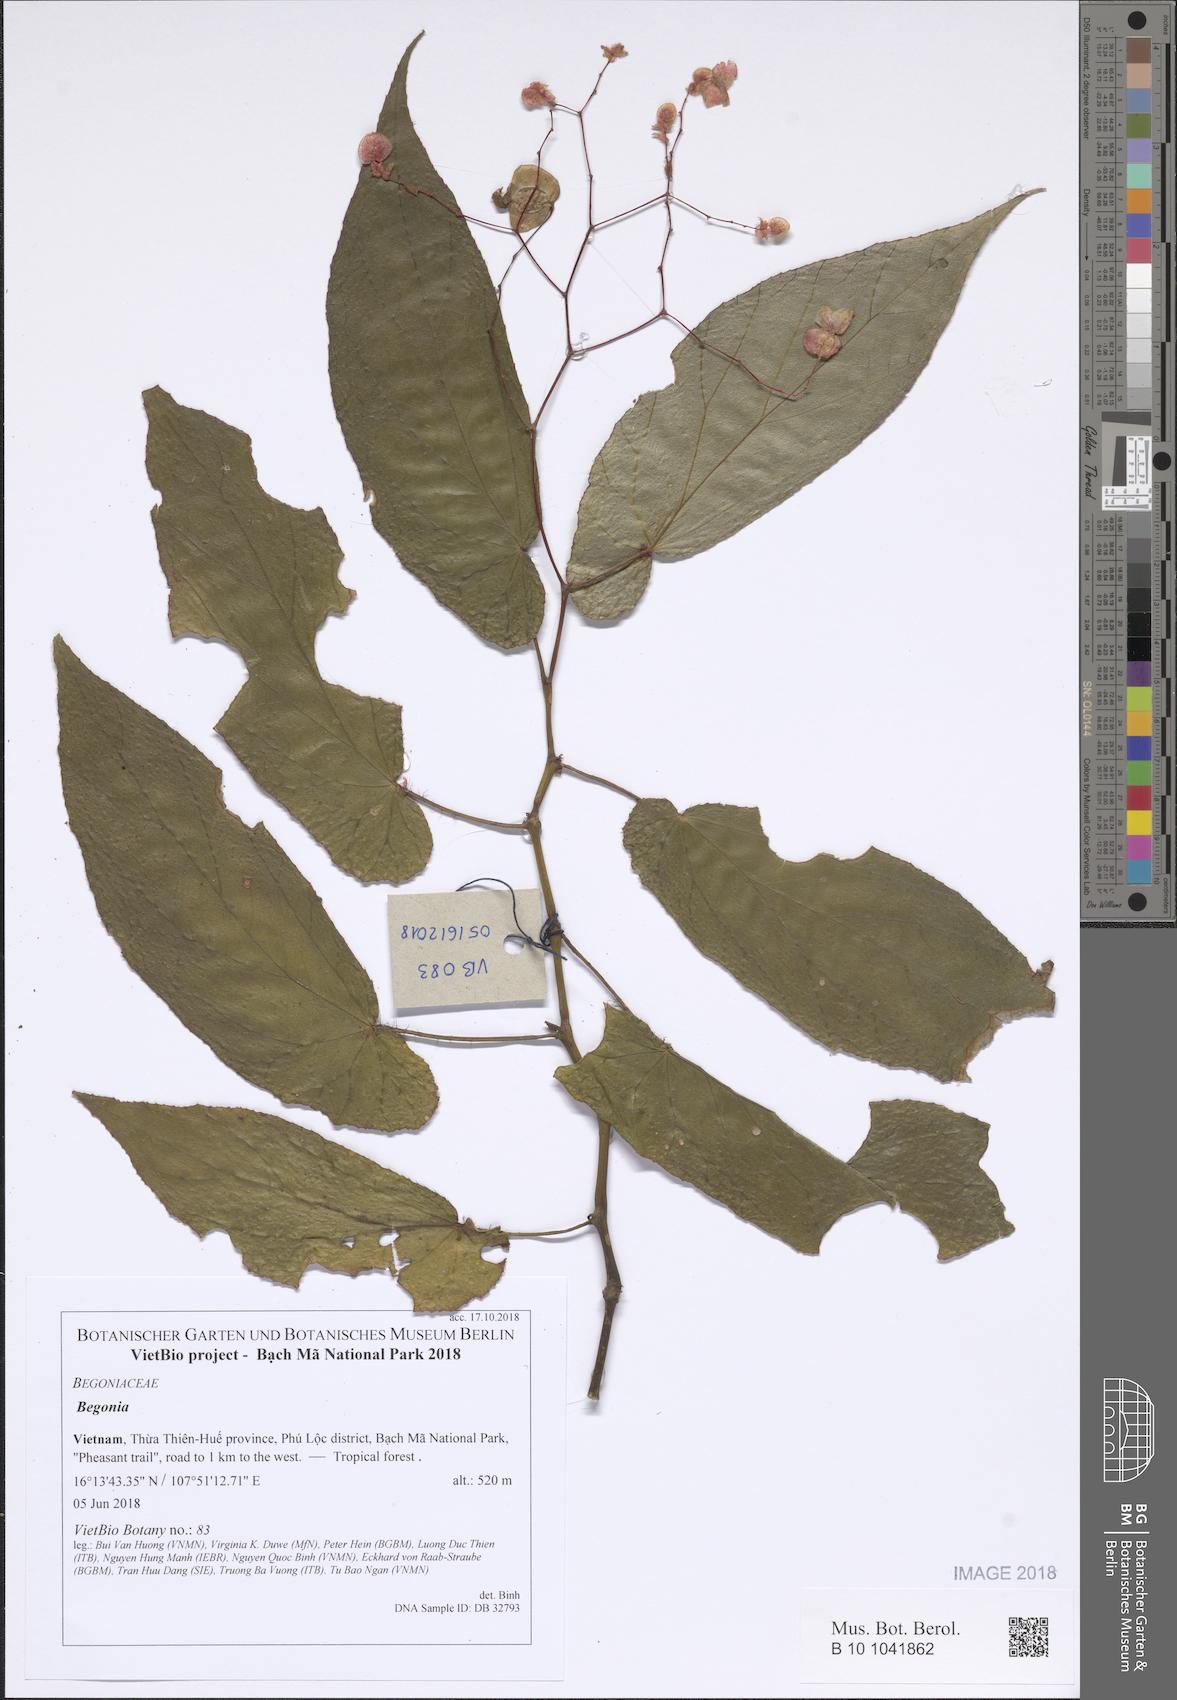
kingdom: Plantae
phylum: Tracheophyta
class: Magnoliopsida
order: Cucurbitales
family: Begoniaceae
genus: Begonia
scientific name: Begonia
